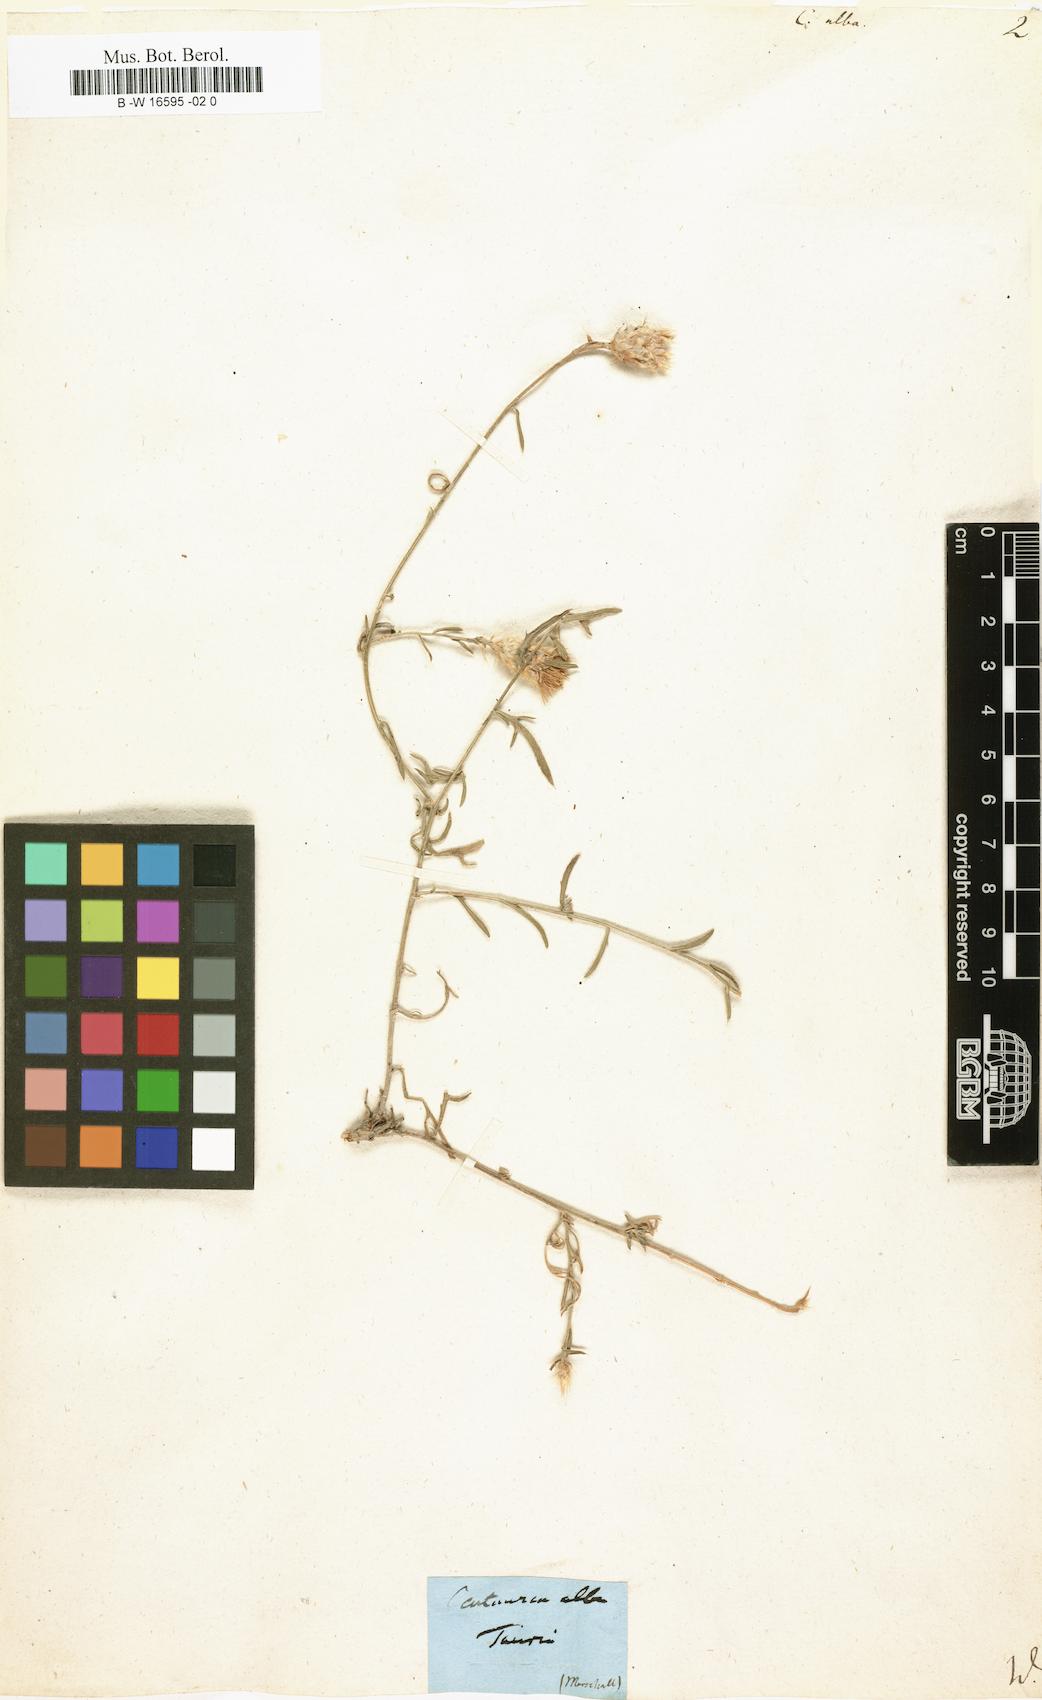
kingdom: Plantae
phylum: Tracheophyta
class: Magnoliopsida
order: Asterales
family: Asteraceae
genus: Centaurea
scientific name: Centaurea alba
